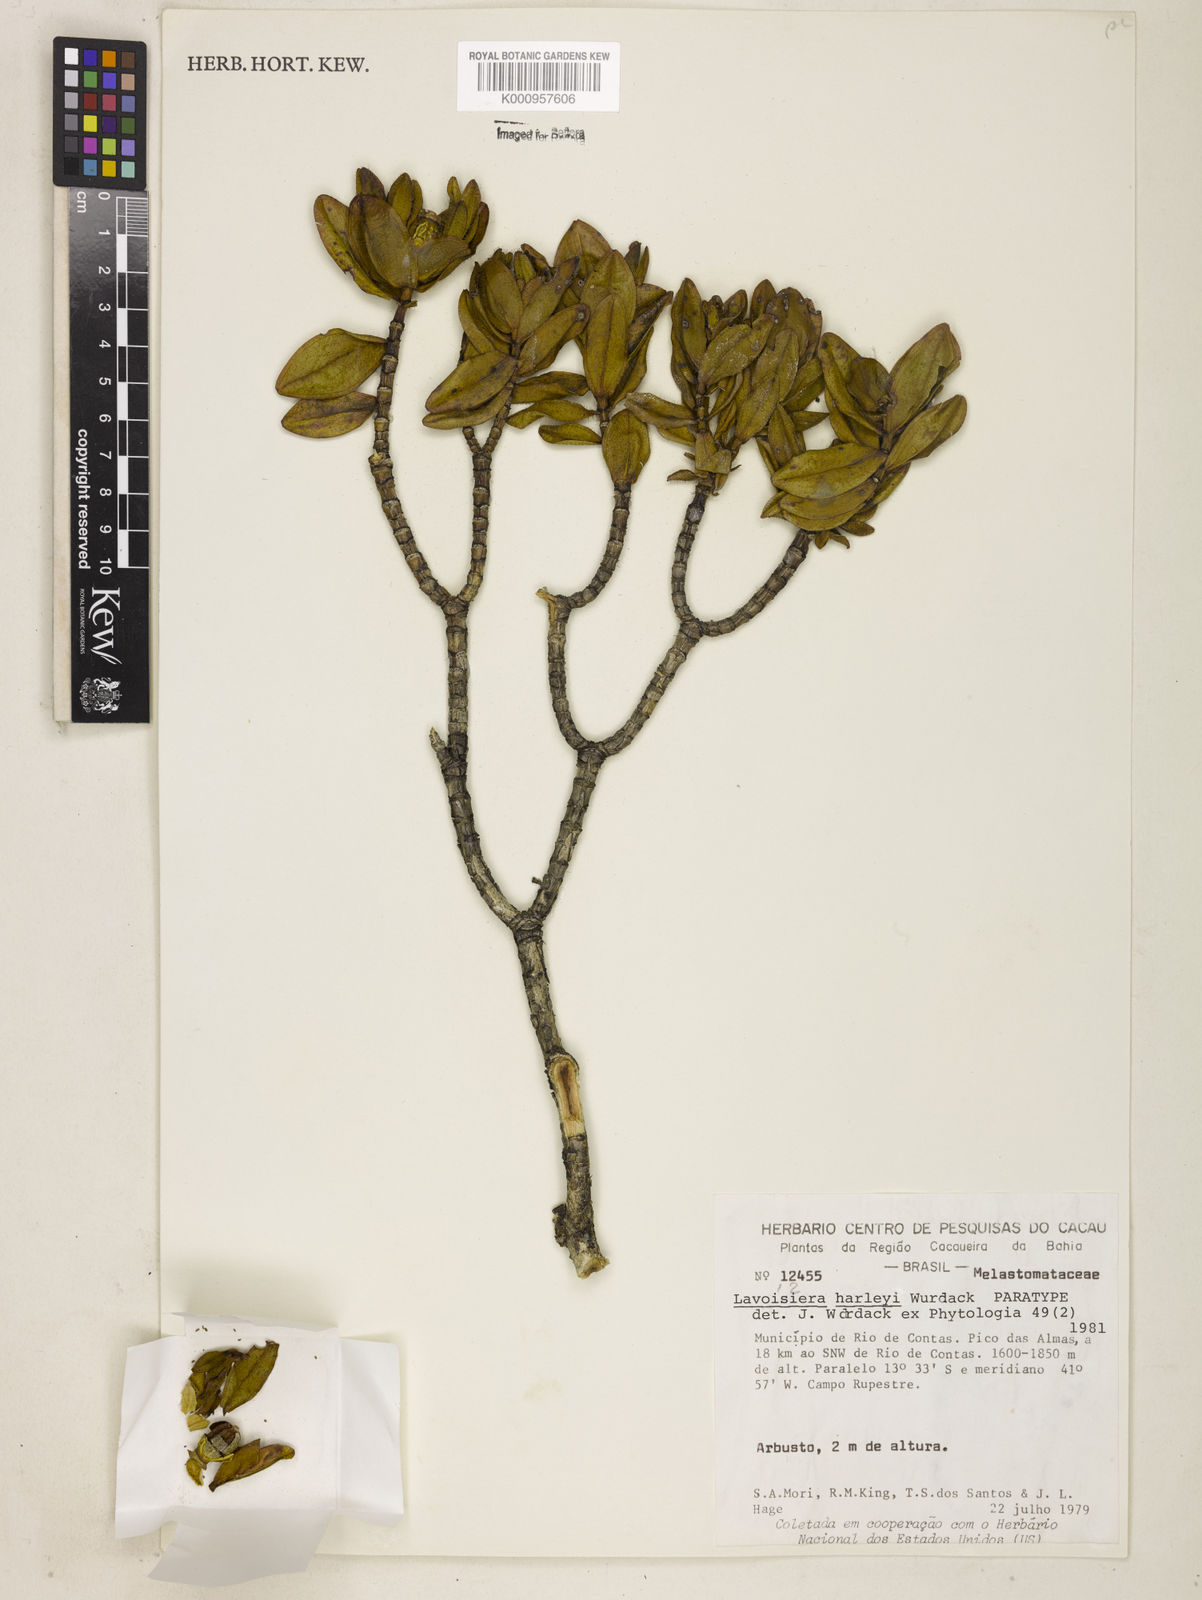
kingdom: Plantae
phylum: Tracheophyta
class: Magnoliopsida
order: Myrtales
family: Melastomataceae
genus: Microlicia
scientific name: Microlicia raymondii
